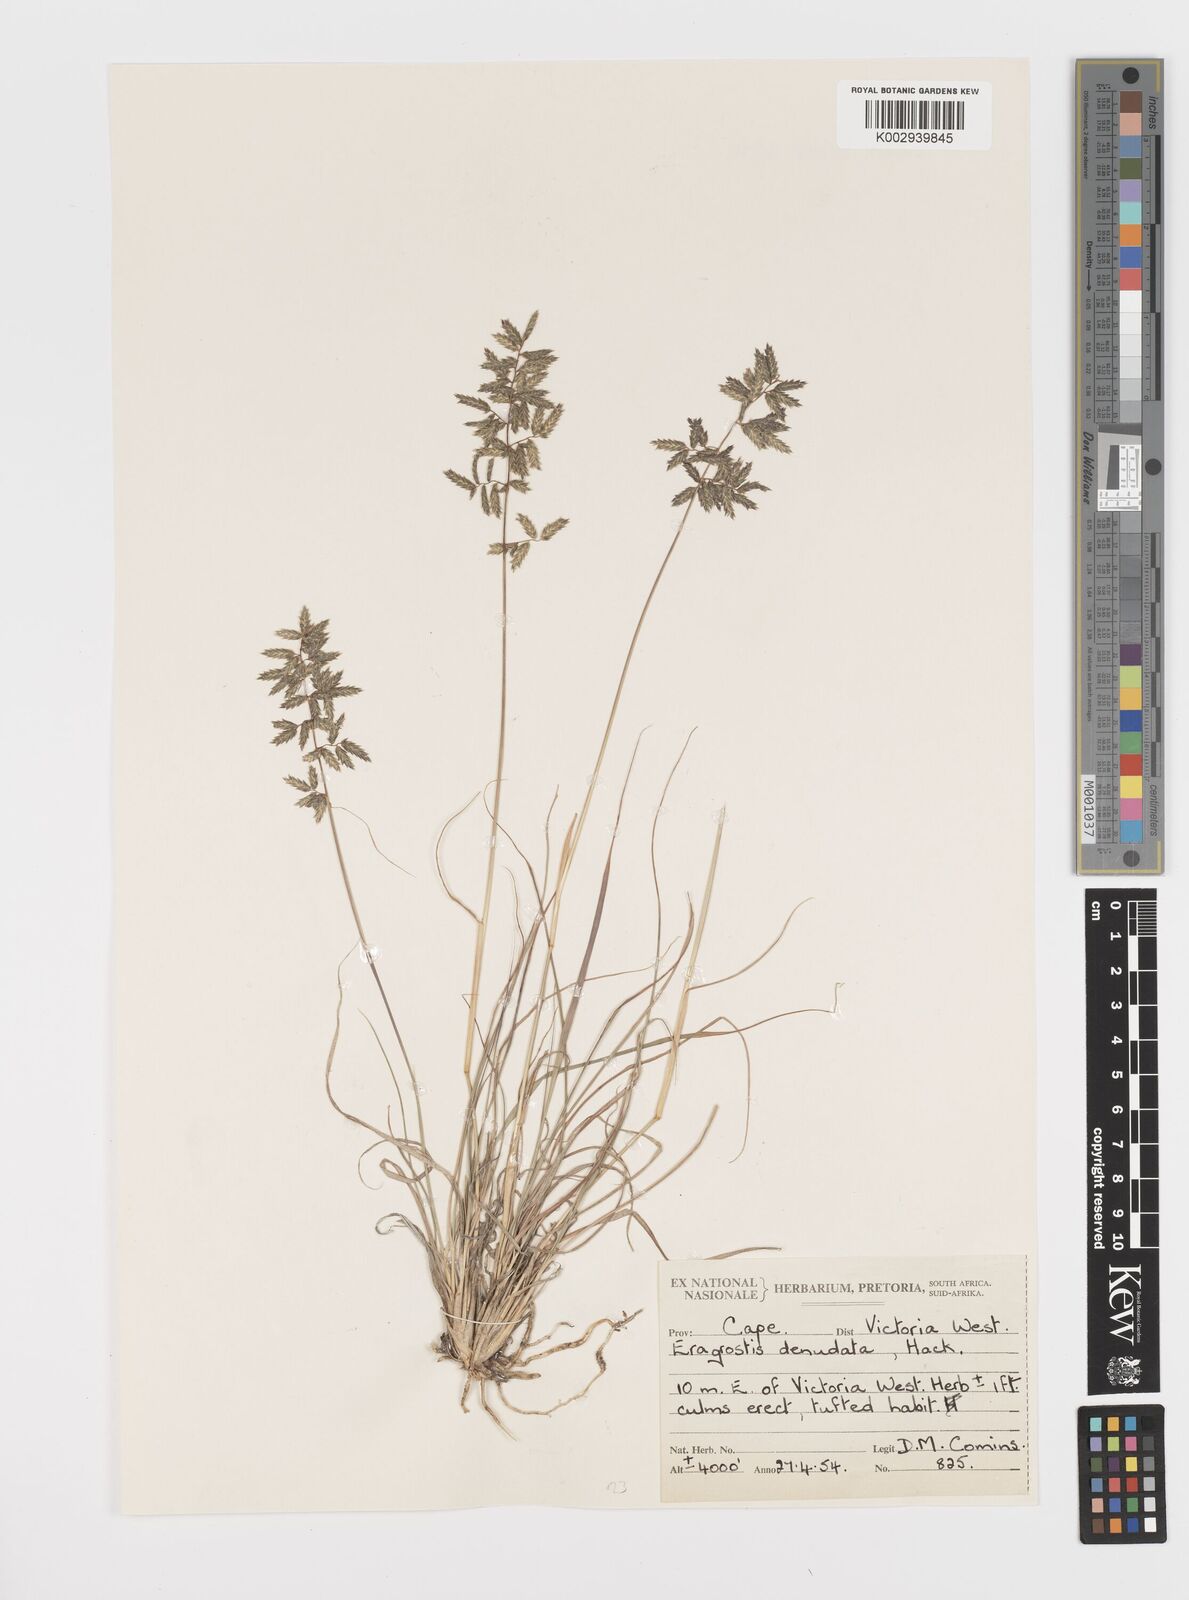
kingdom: Plantae
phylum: Tracheophyta
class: Liliopsida
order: Poales
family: Poaceae
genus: Eragrostis
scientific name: Eragrostis nindensis
